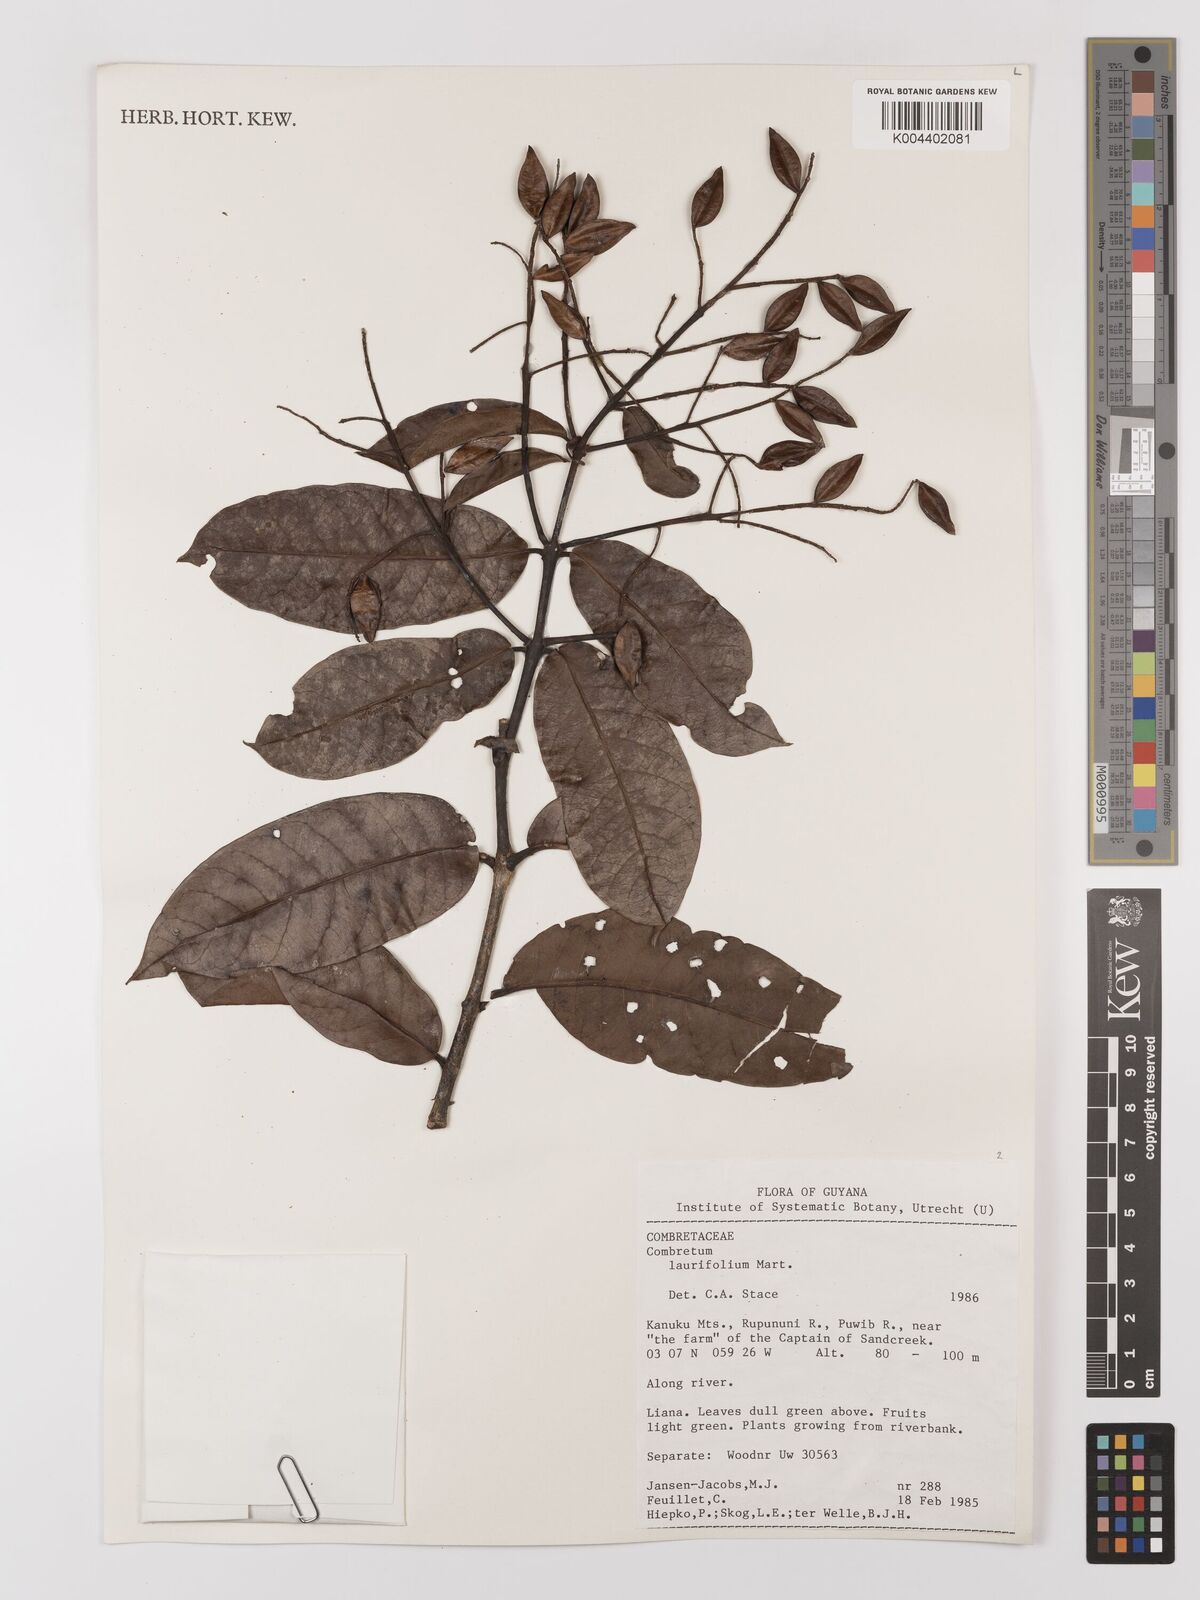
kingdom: Plantae
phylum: Tracheophyta
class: Magnoliopsida
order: Myrtales
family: Combretaceae
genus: Combretum
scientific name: Combretum
